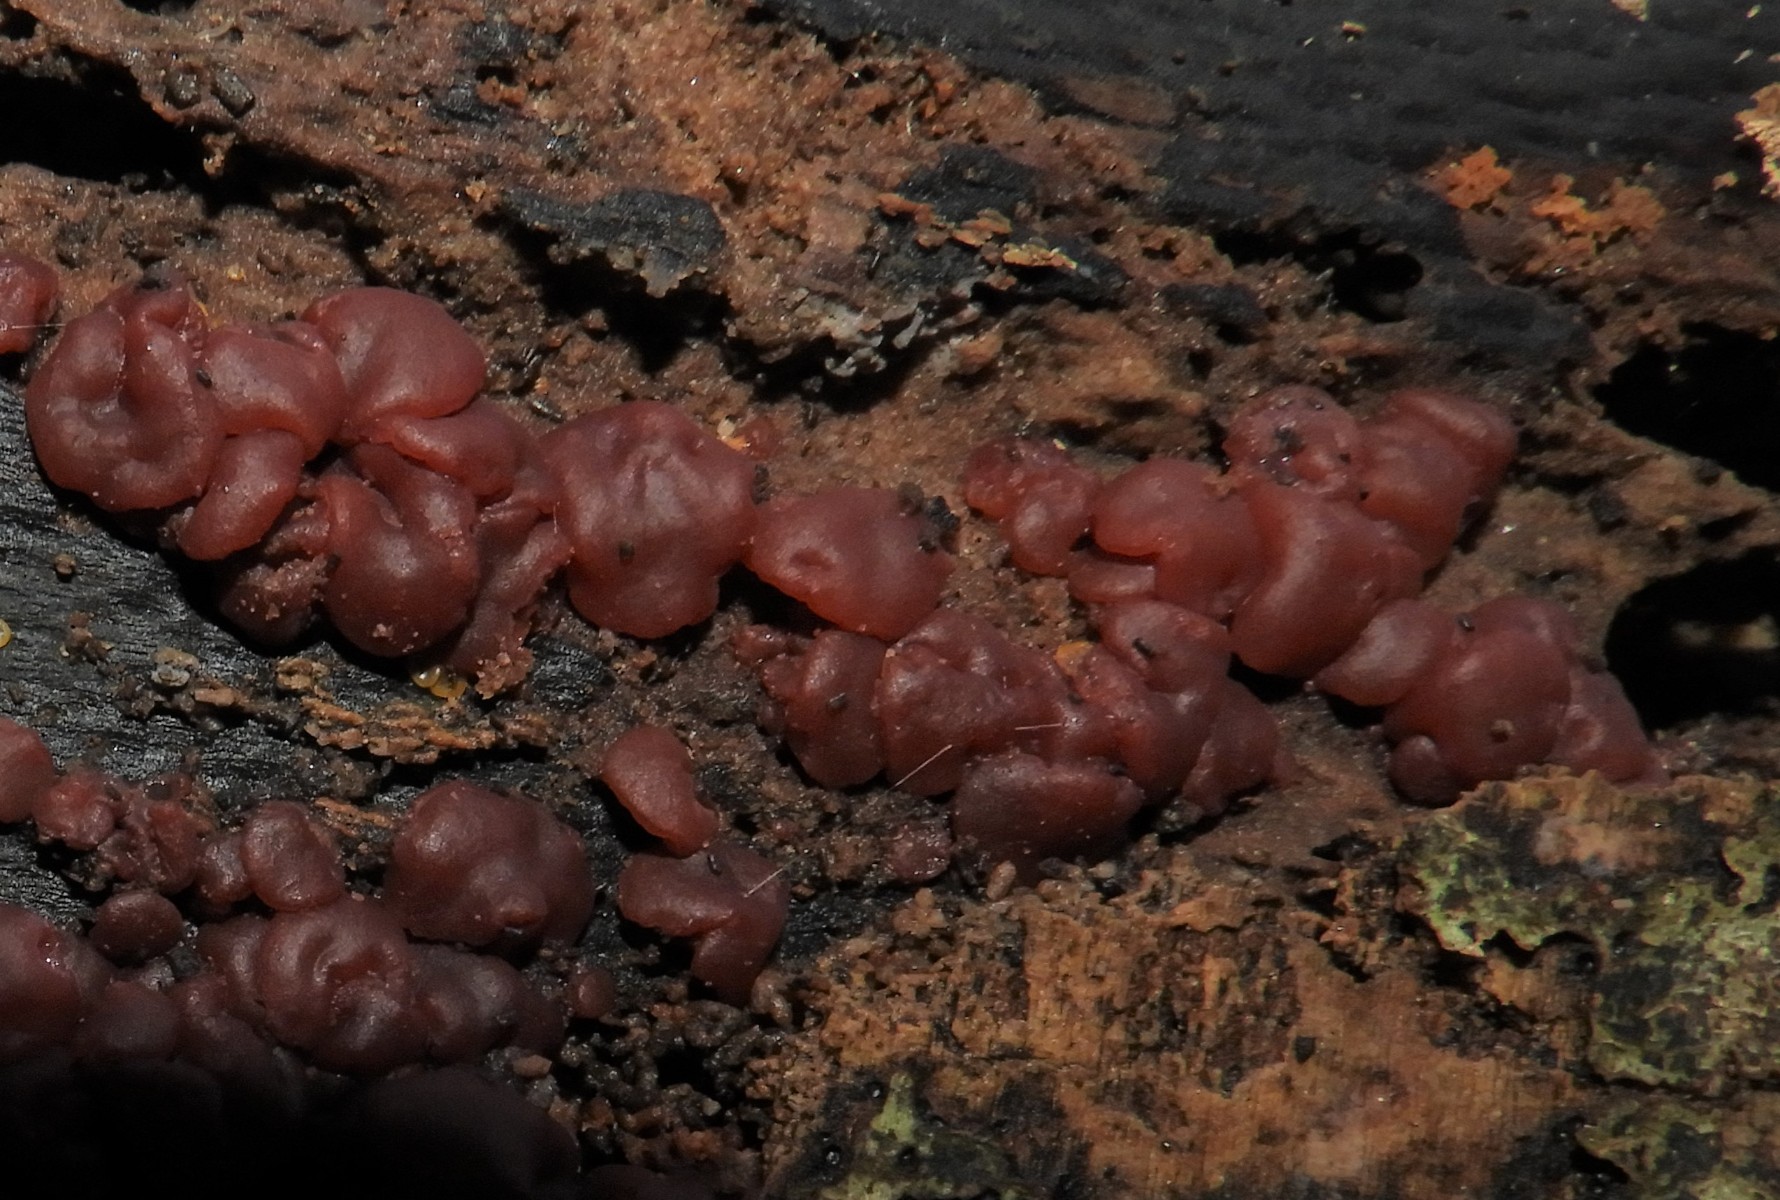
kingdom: Fungi
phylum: Ascomycota
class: Leotiomycetes
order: Helotiales
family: Gelatinodiscaceae
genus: Ascocoryne
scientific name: Ascocoryne inflata
